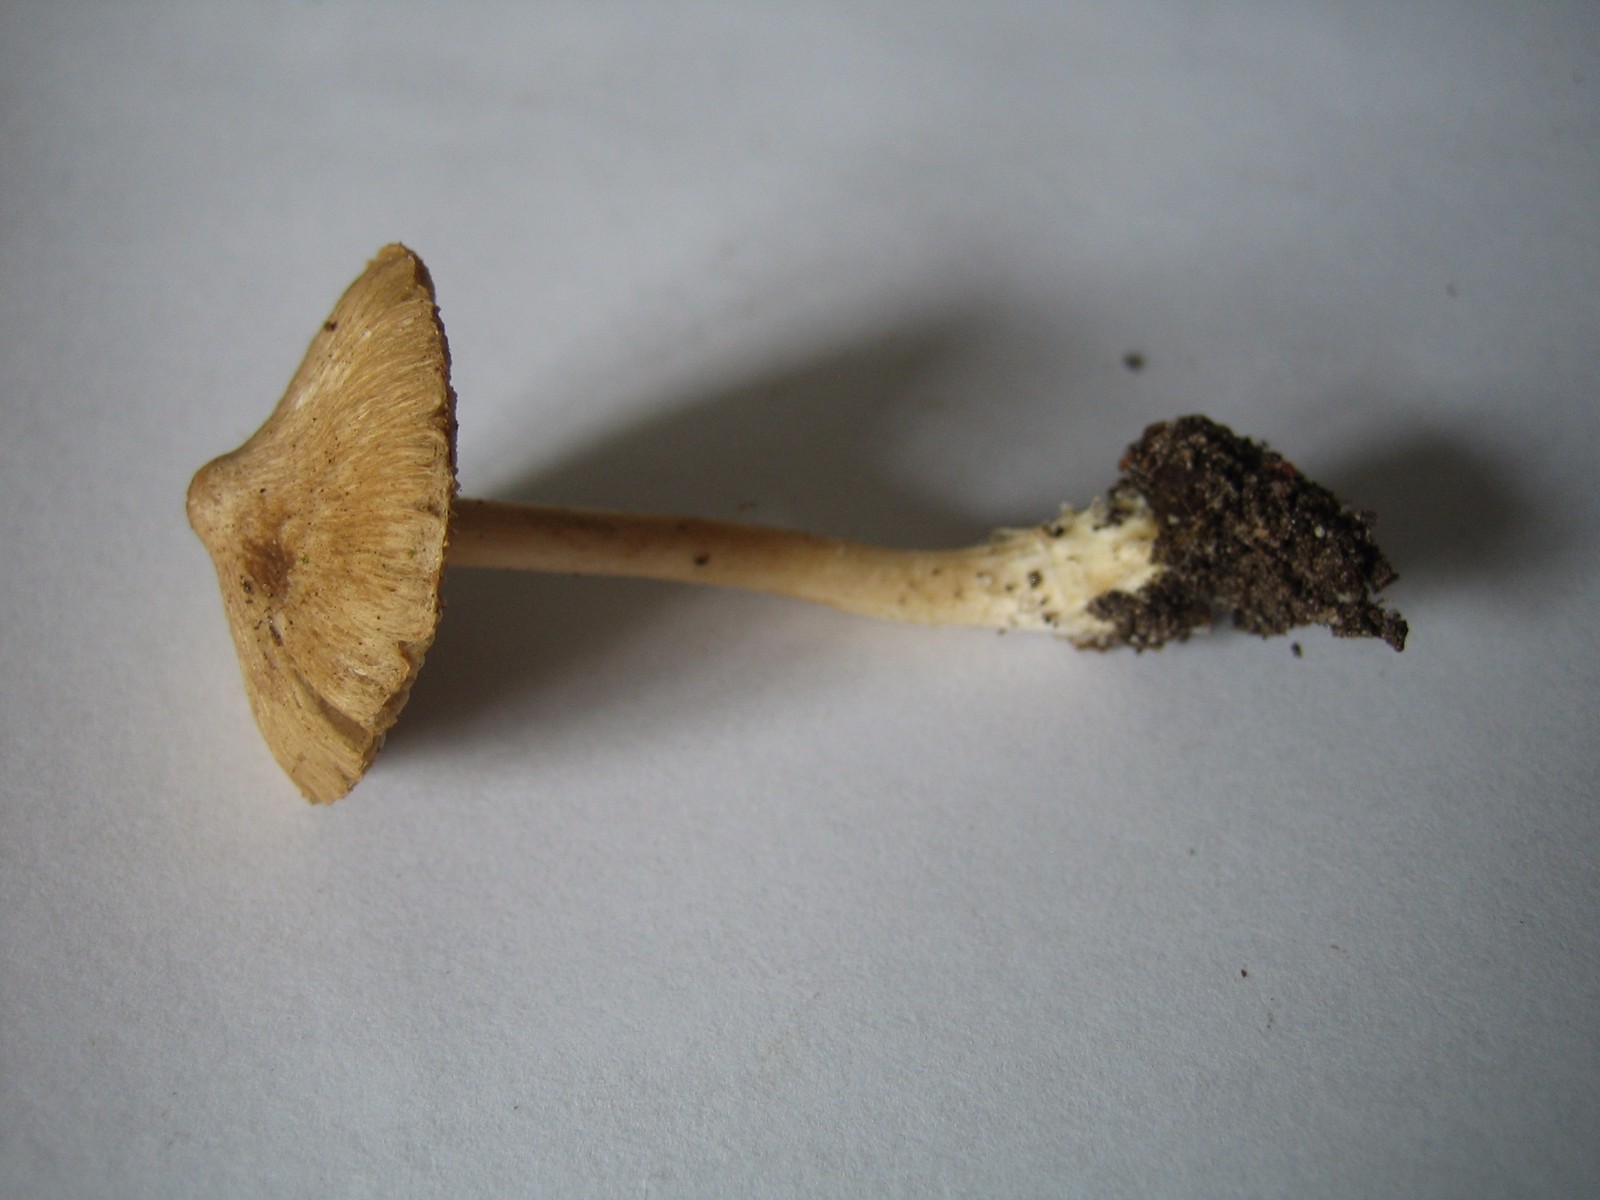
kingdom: Fungi
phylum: Basidiomycota
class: Agaricomycetes
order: Agaricales
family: Inocybaceae
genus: Inocybe
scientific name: Inocybe
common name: trævlhat
